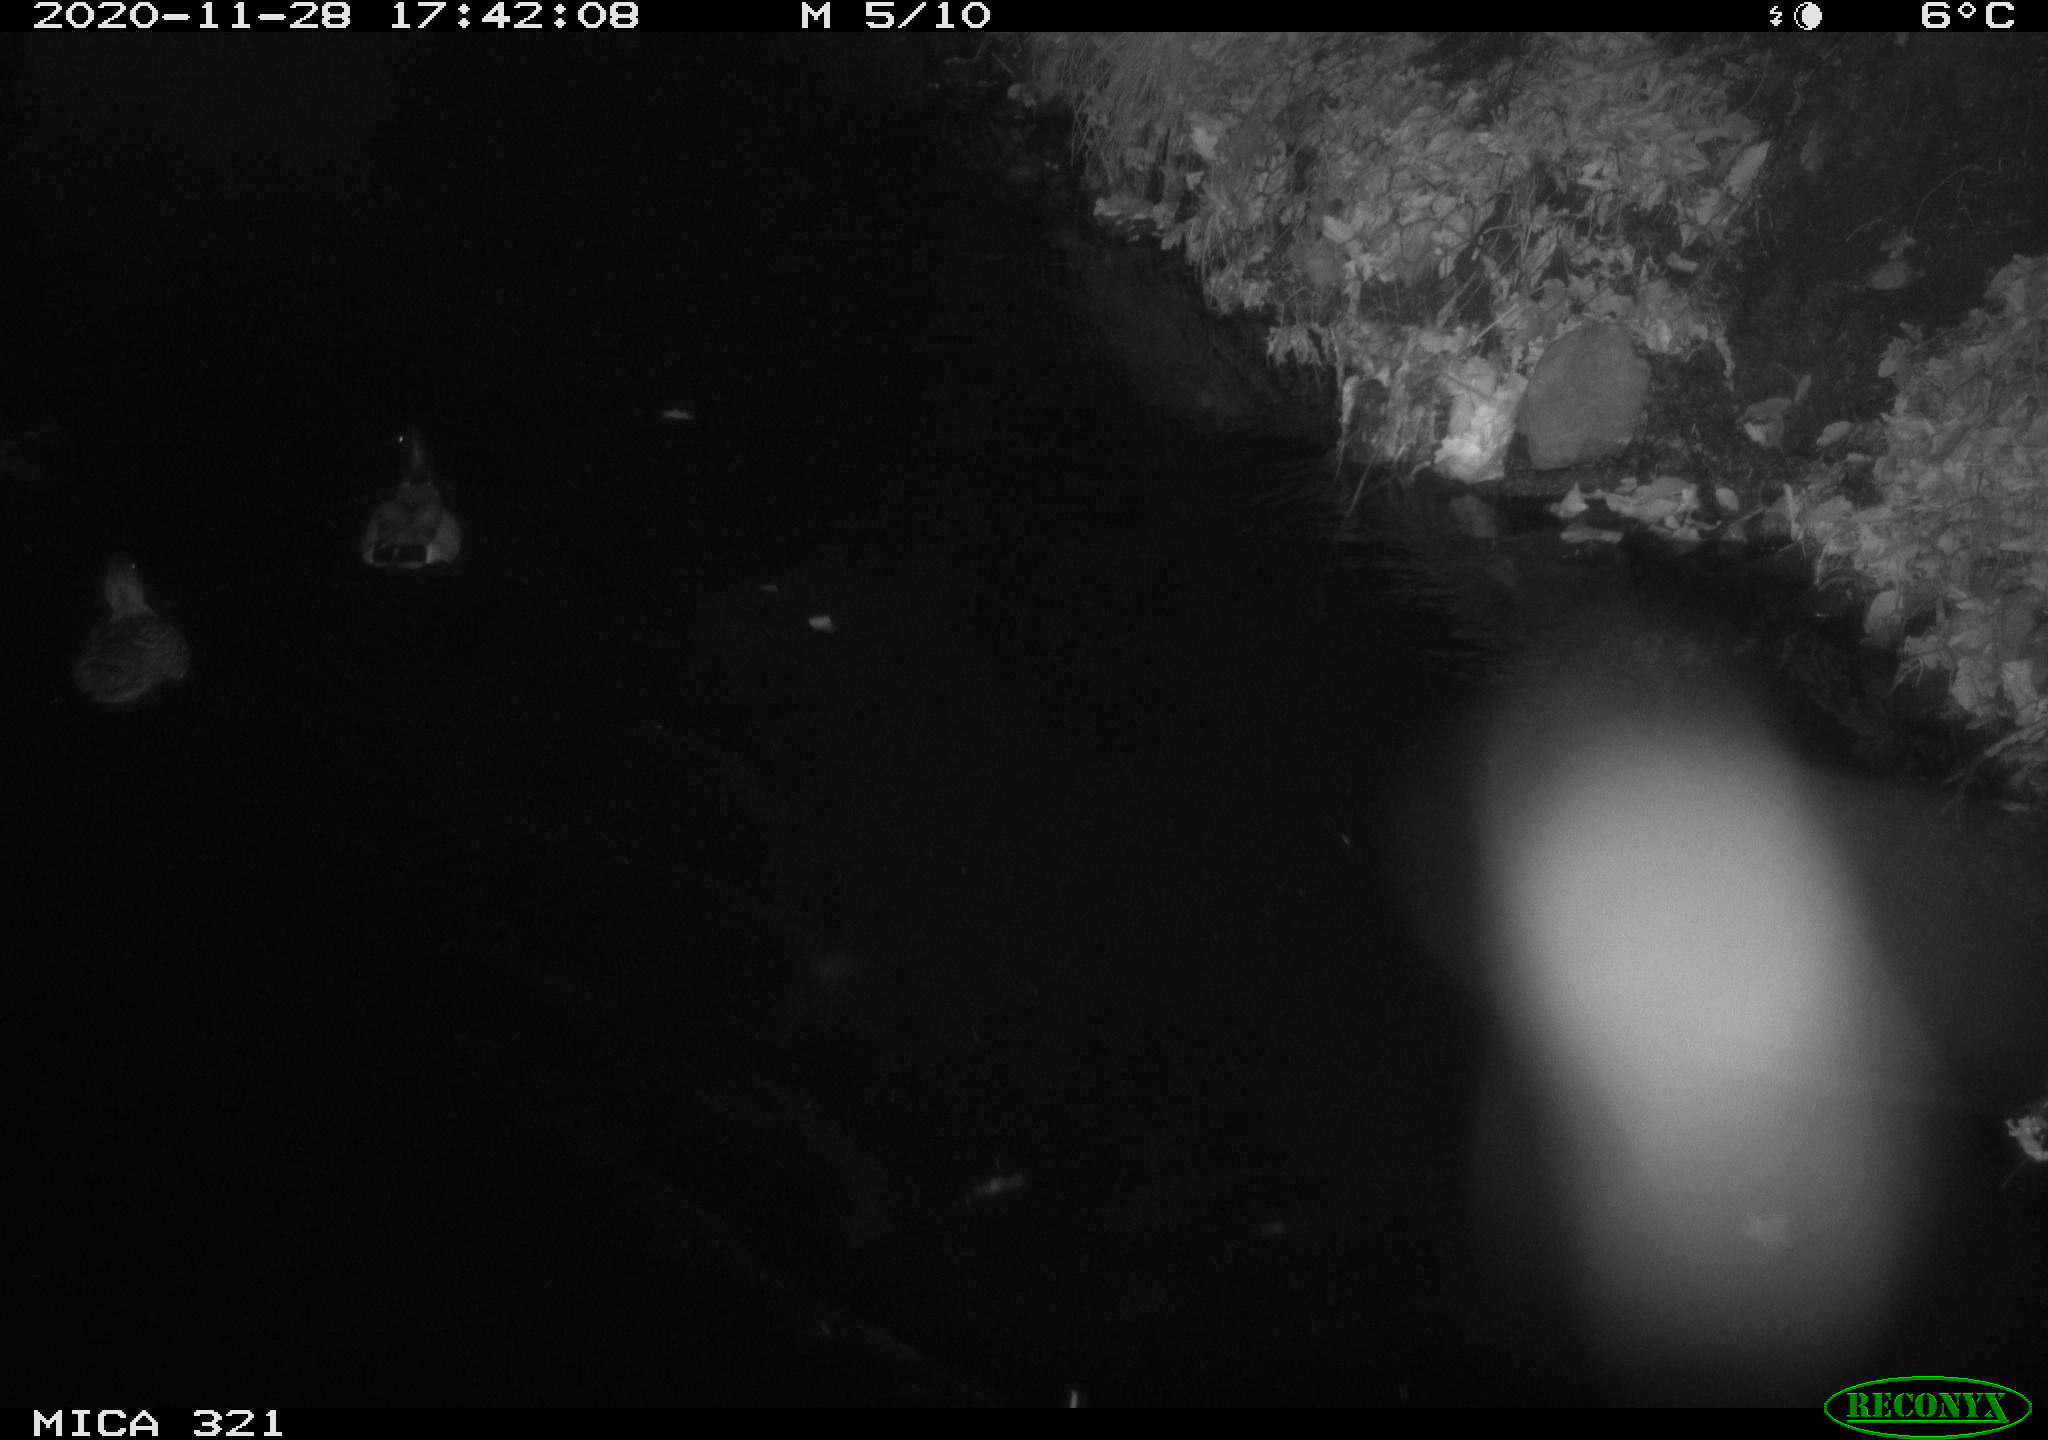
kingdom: Animalia
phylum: Chordata
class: Aves
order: Anseriformes
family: Anatidae
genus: Anas
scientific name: Anas platyrhynchos
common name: Mallard
